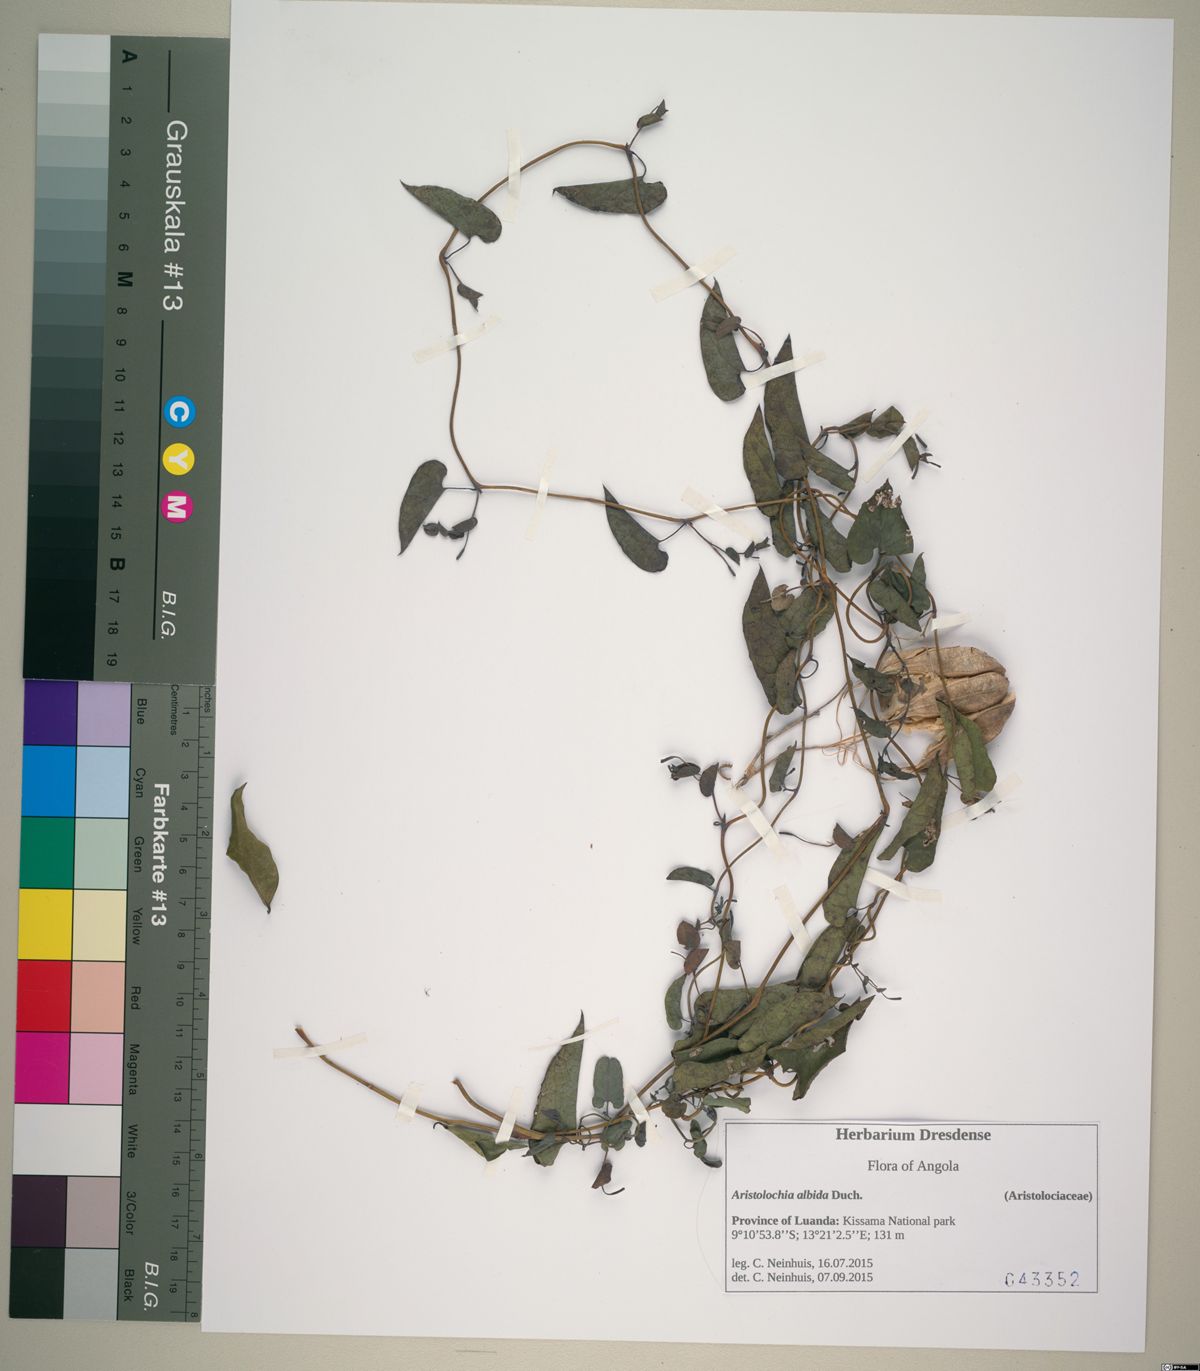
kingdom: Plantae
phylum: Tracheophyta
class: Magnoliopsida
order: Piperales
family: Aristolochiaceae
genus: Aristolochia
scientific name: Aristolochia albida
